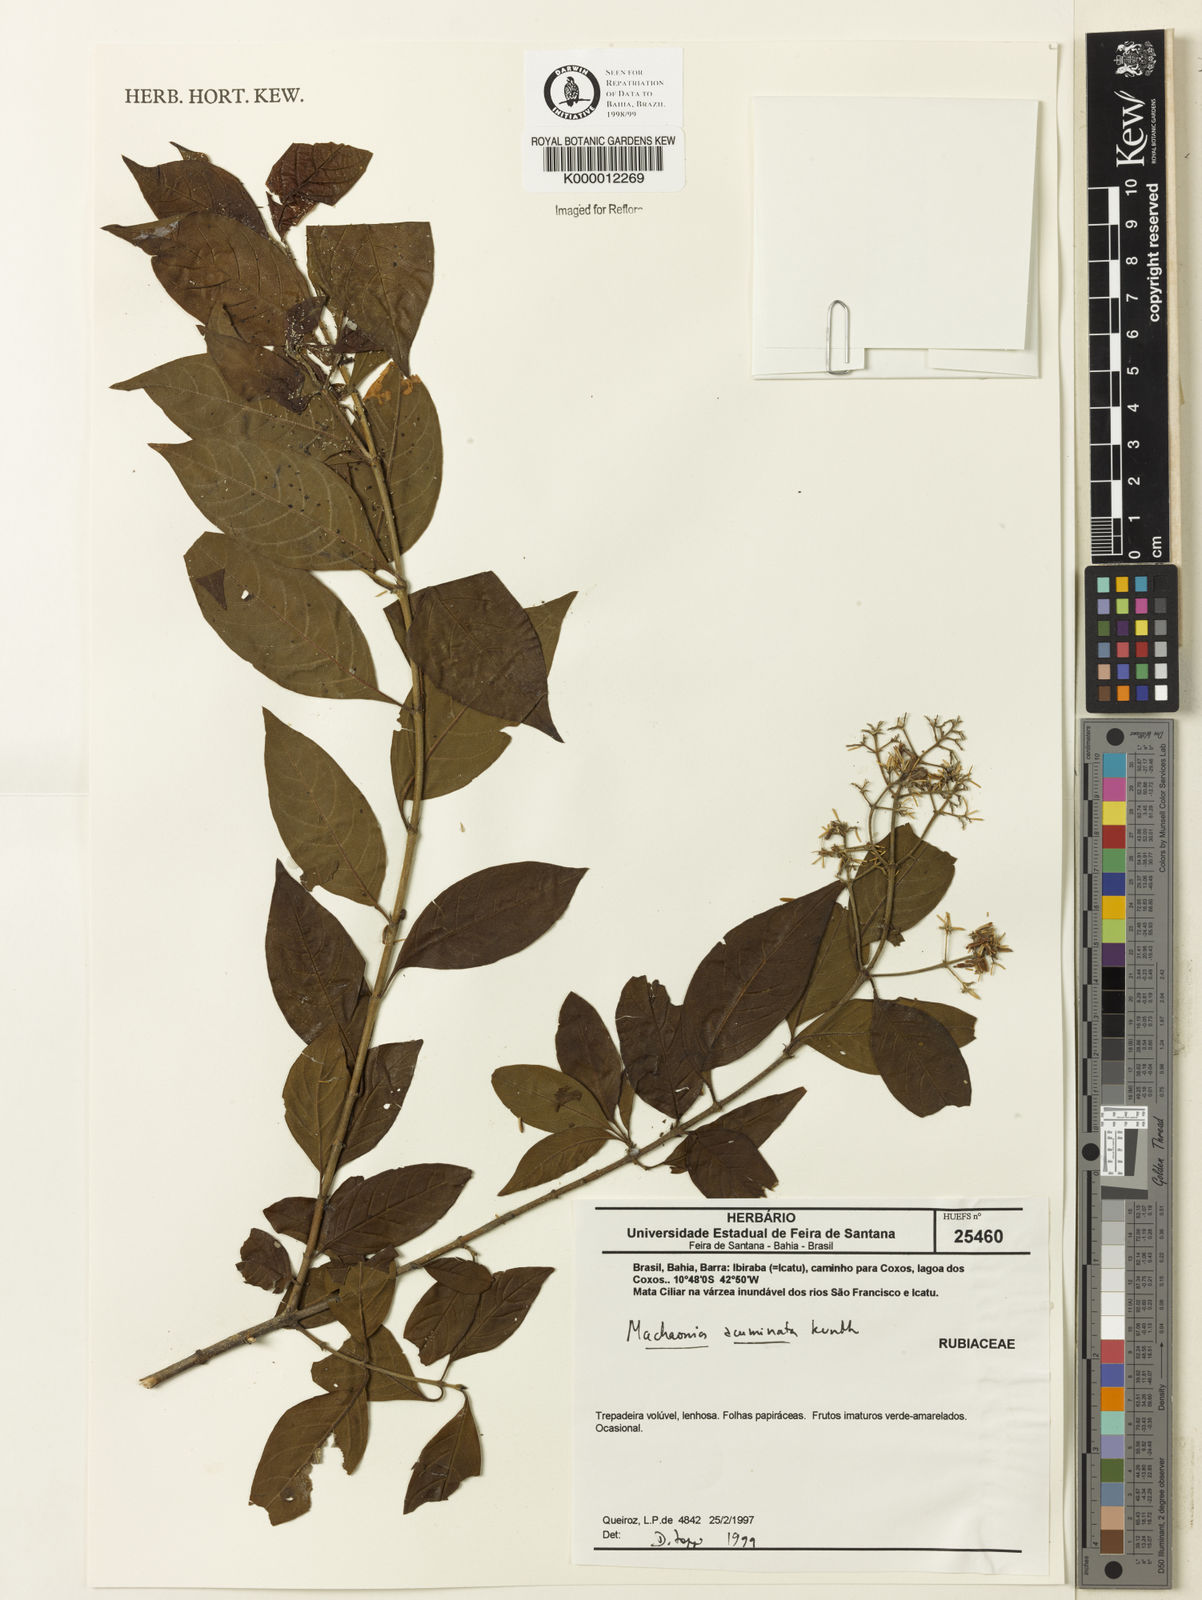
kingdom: Plantae
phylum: Tracheophyta
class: Magnoliopsida
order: Gentianales
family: Rubiaceae
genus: Machaonia
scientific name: Machaonia
